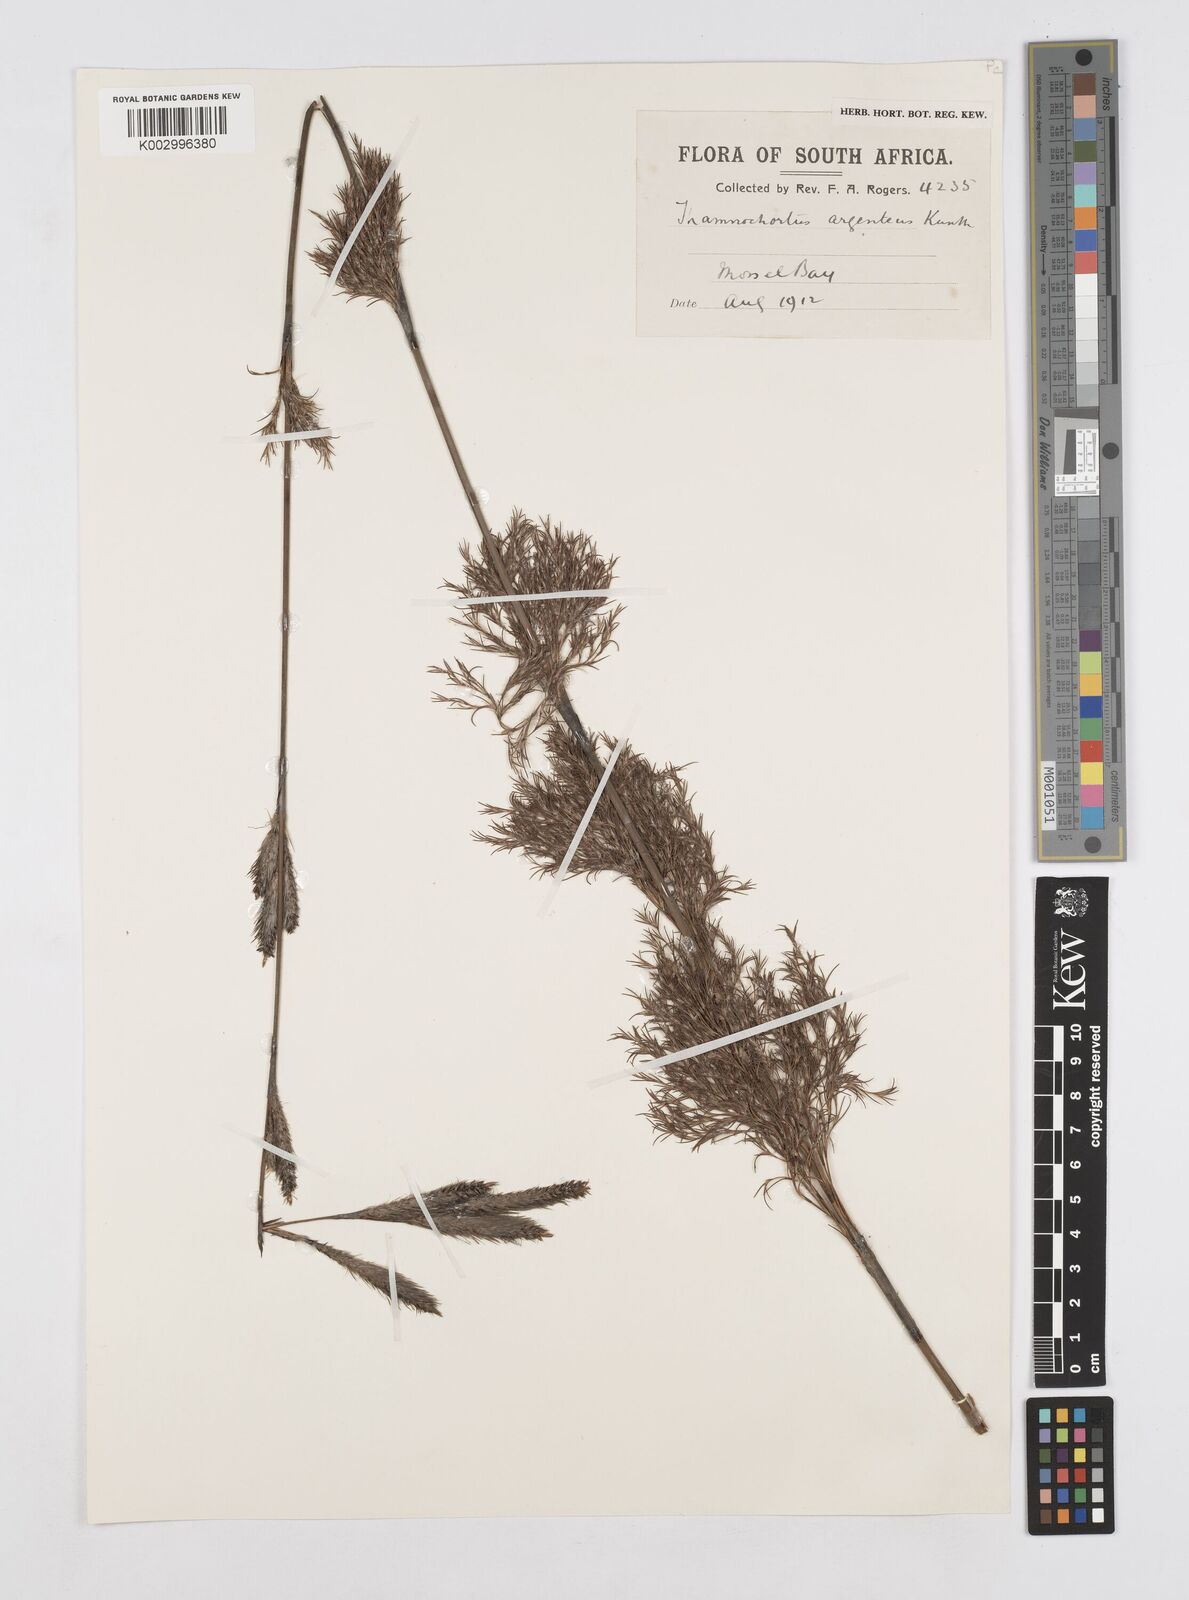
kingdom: Plantae
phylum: Tracheophyta
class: Liliopsida
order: Poales
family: Restionaceae
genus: Hypodiscus
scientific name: Hypodiscus argenteus
